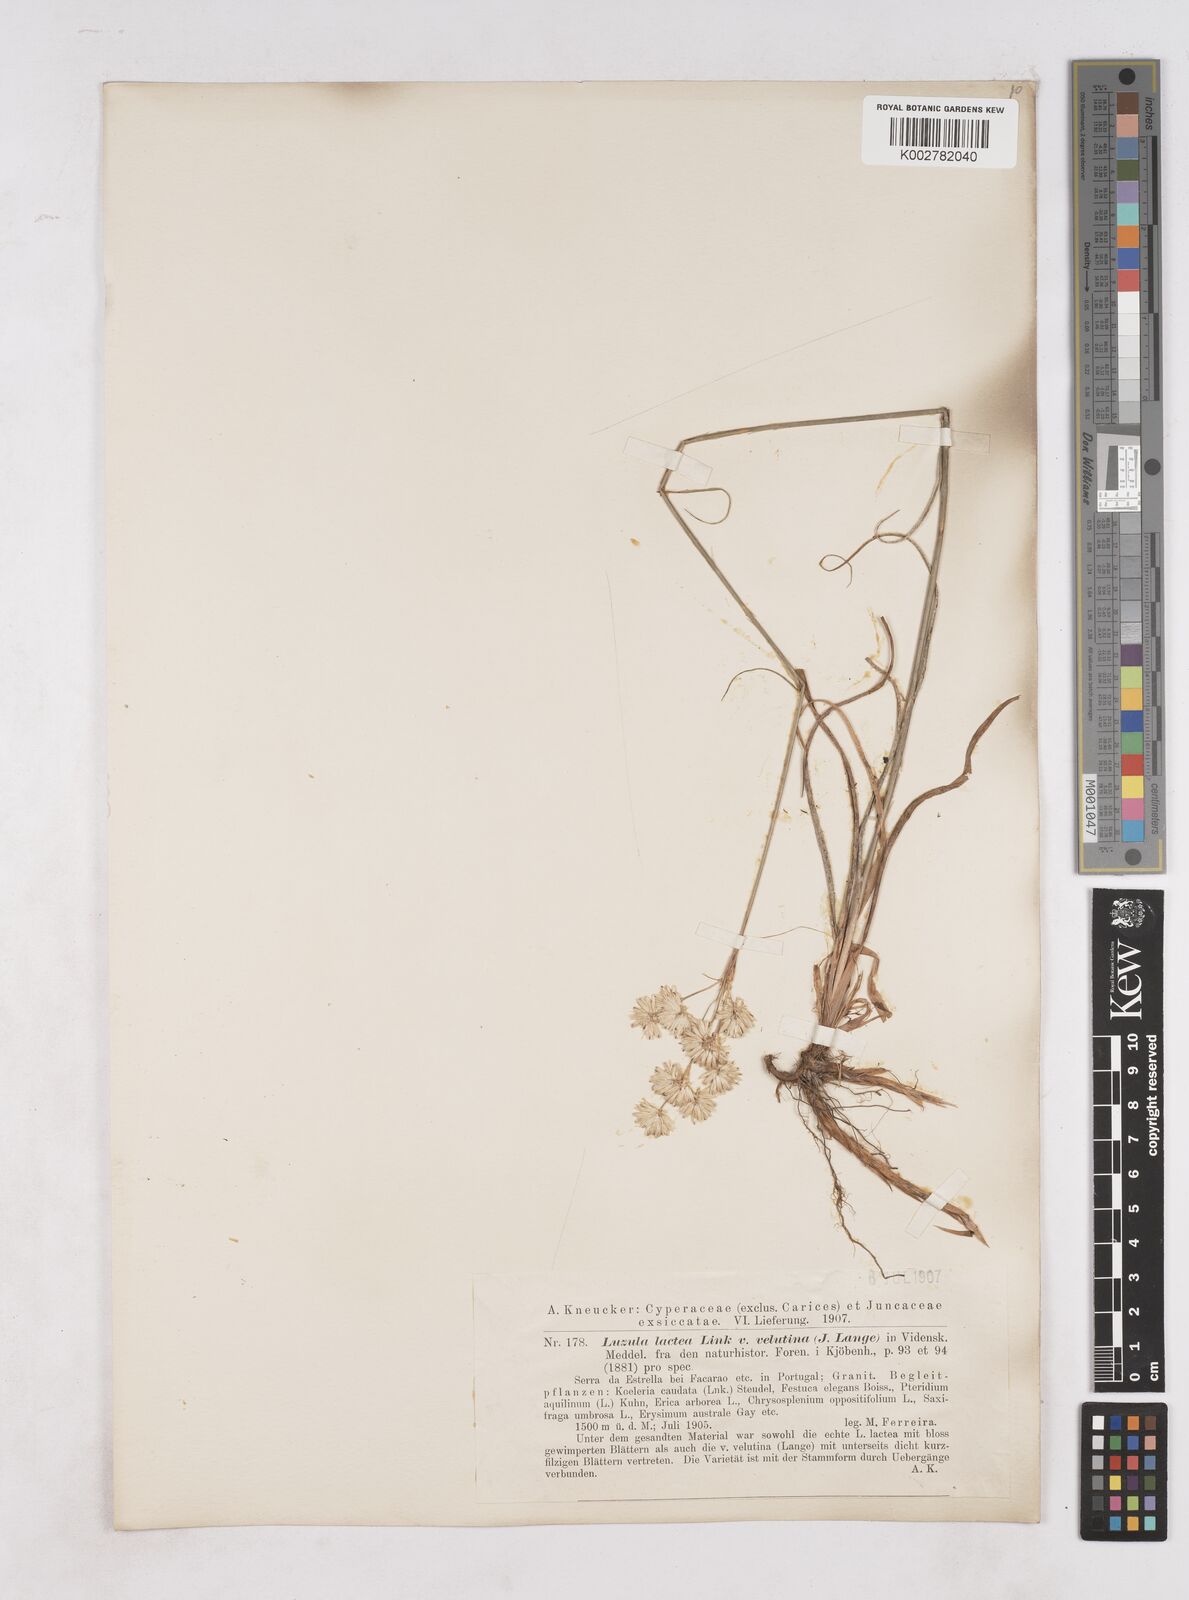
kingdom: Plantae
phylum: Tracheophyta
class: Liliopsida
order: Poales
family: Juncaceae
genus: Luzula
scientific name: Luzula lactea
